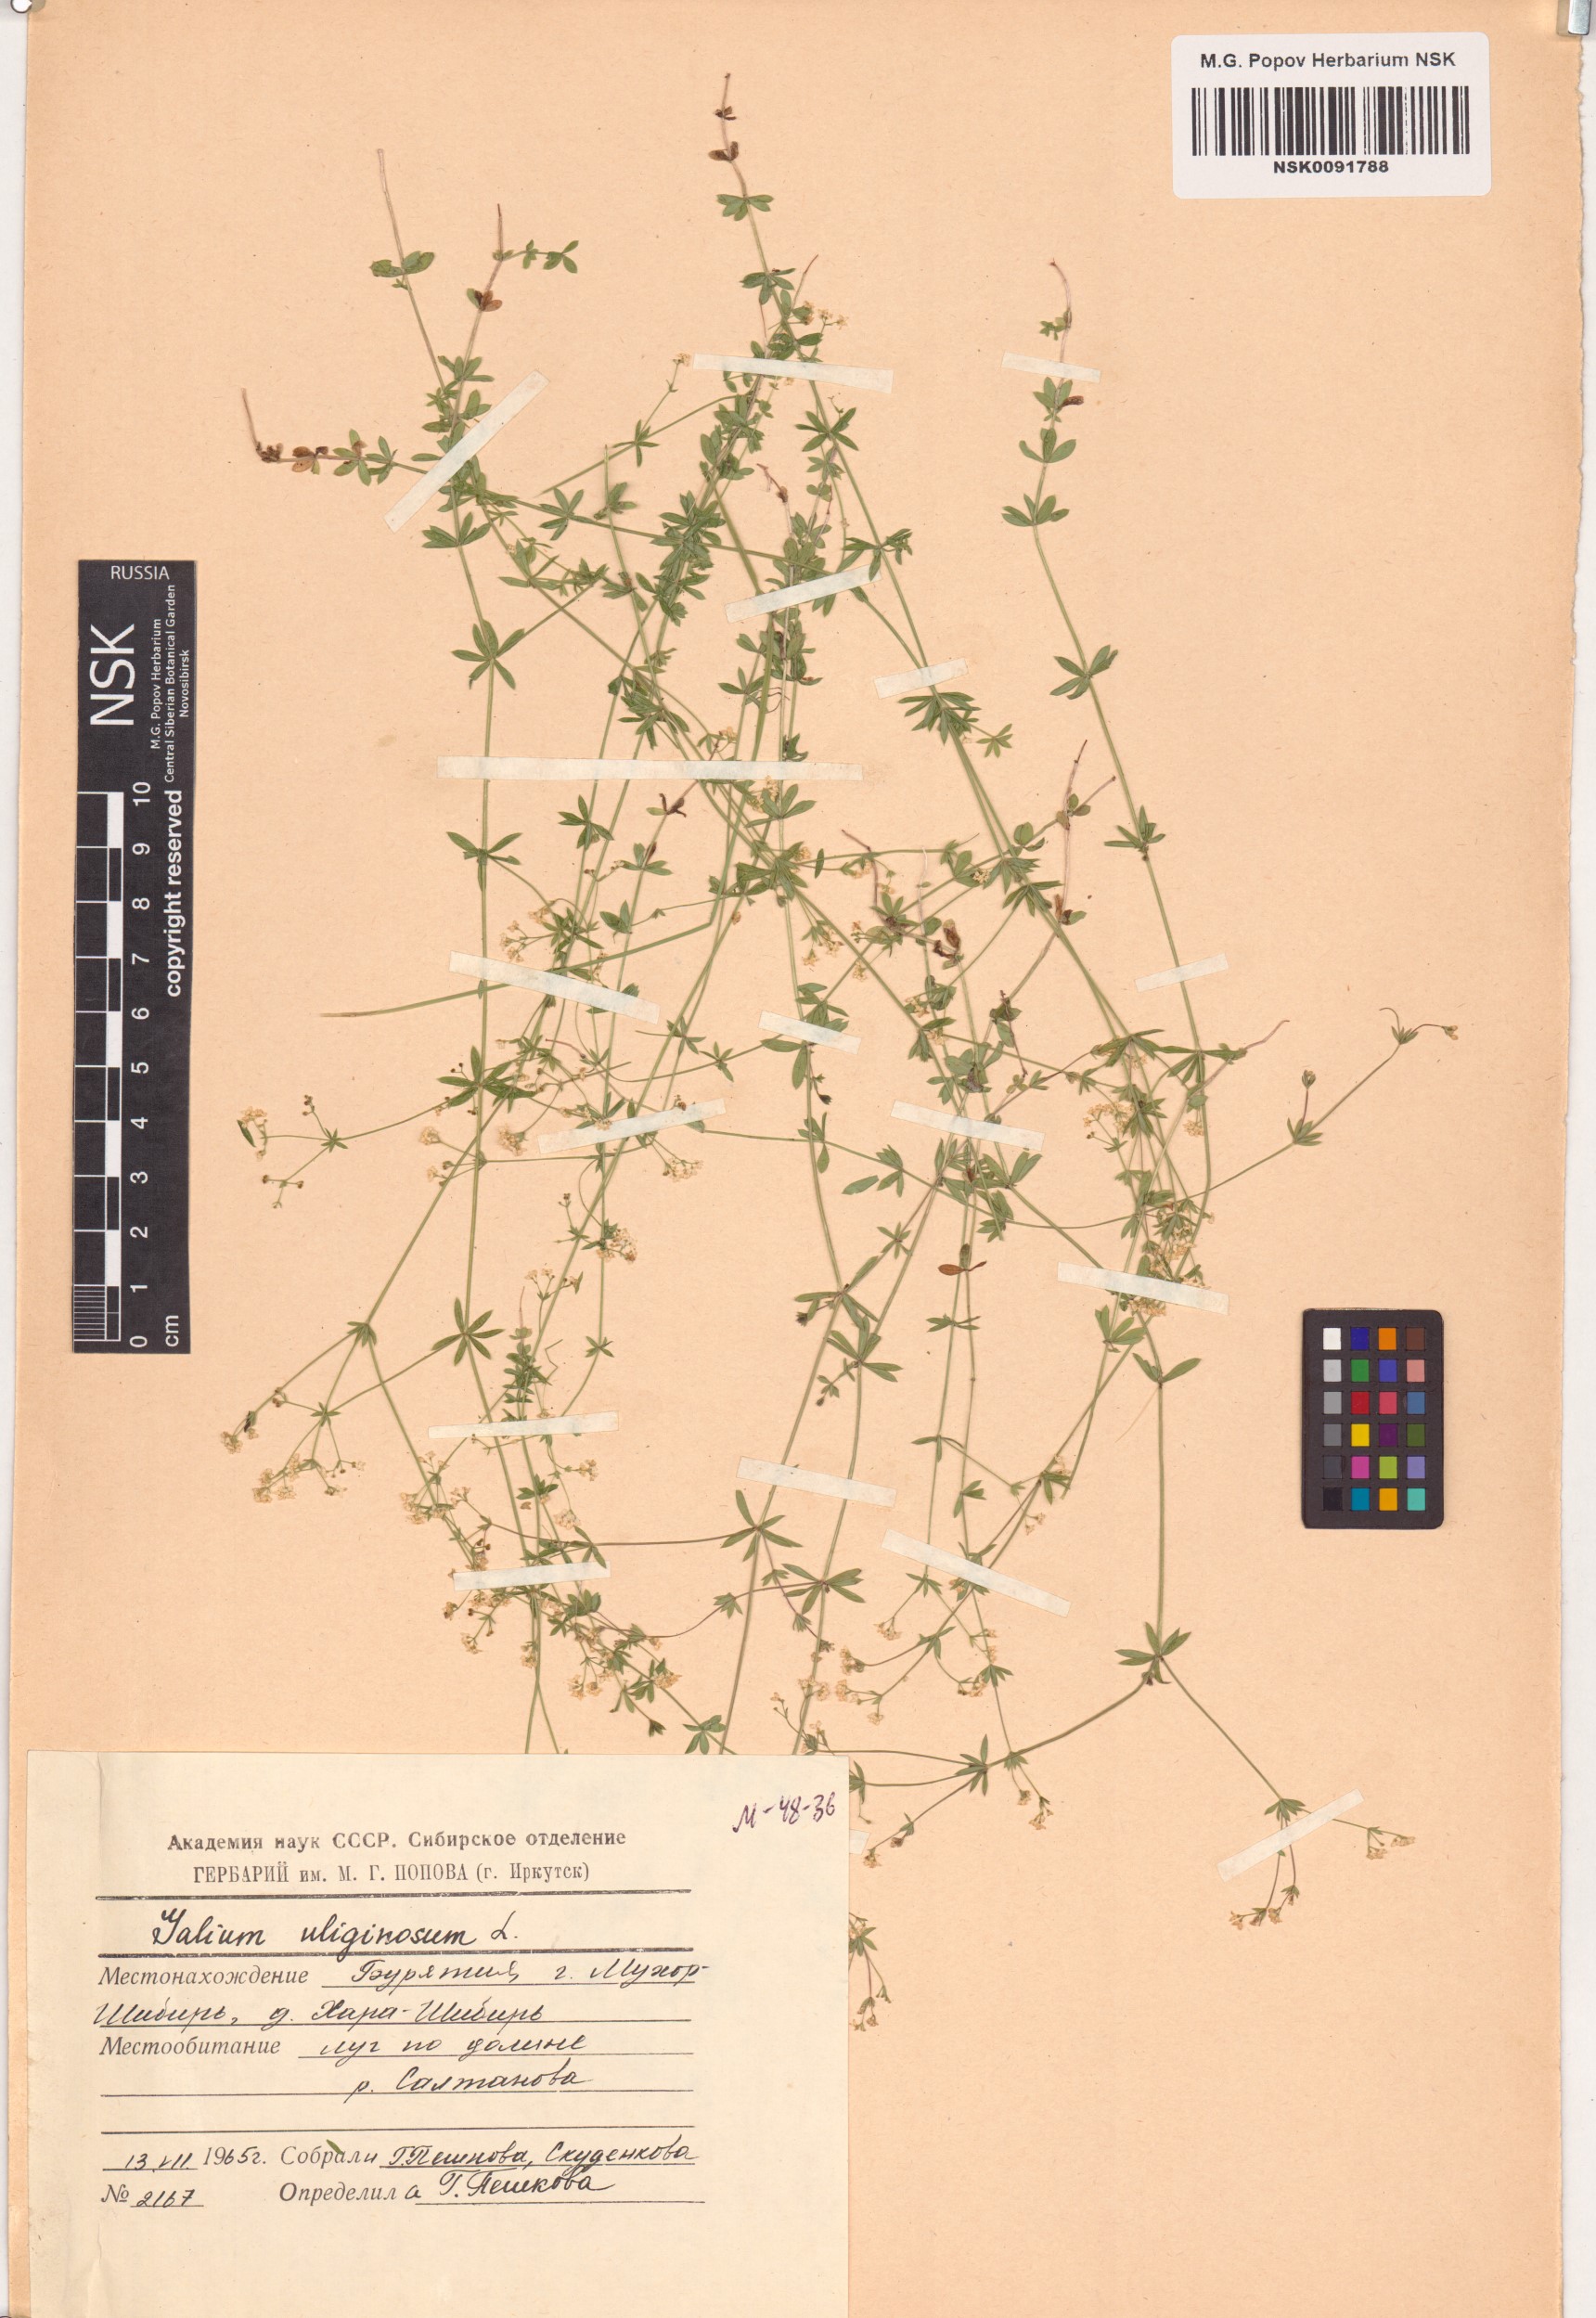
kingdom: Plantae
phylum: Tracheophyta
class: Magnoliopsida
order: Gentianales
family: Rubiaceae
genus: Galium
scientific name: Galium uliginosum
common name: Fen bedstraw
